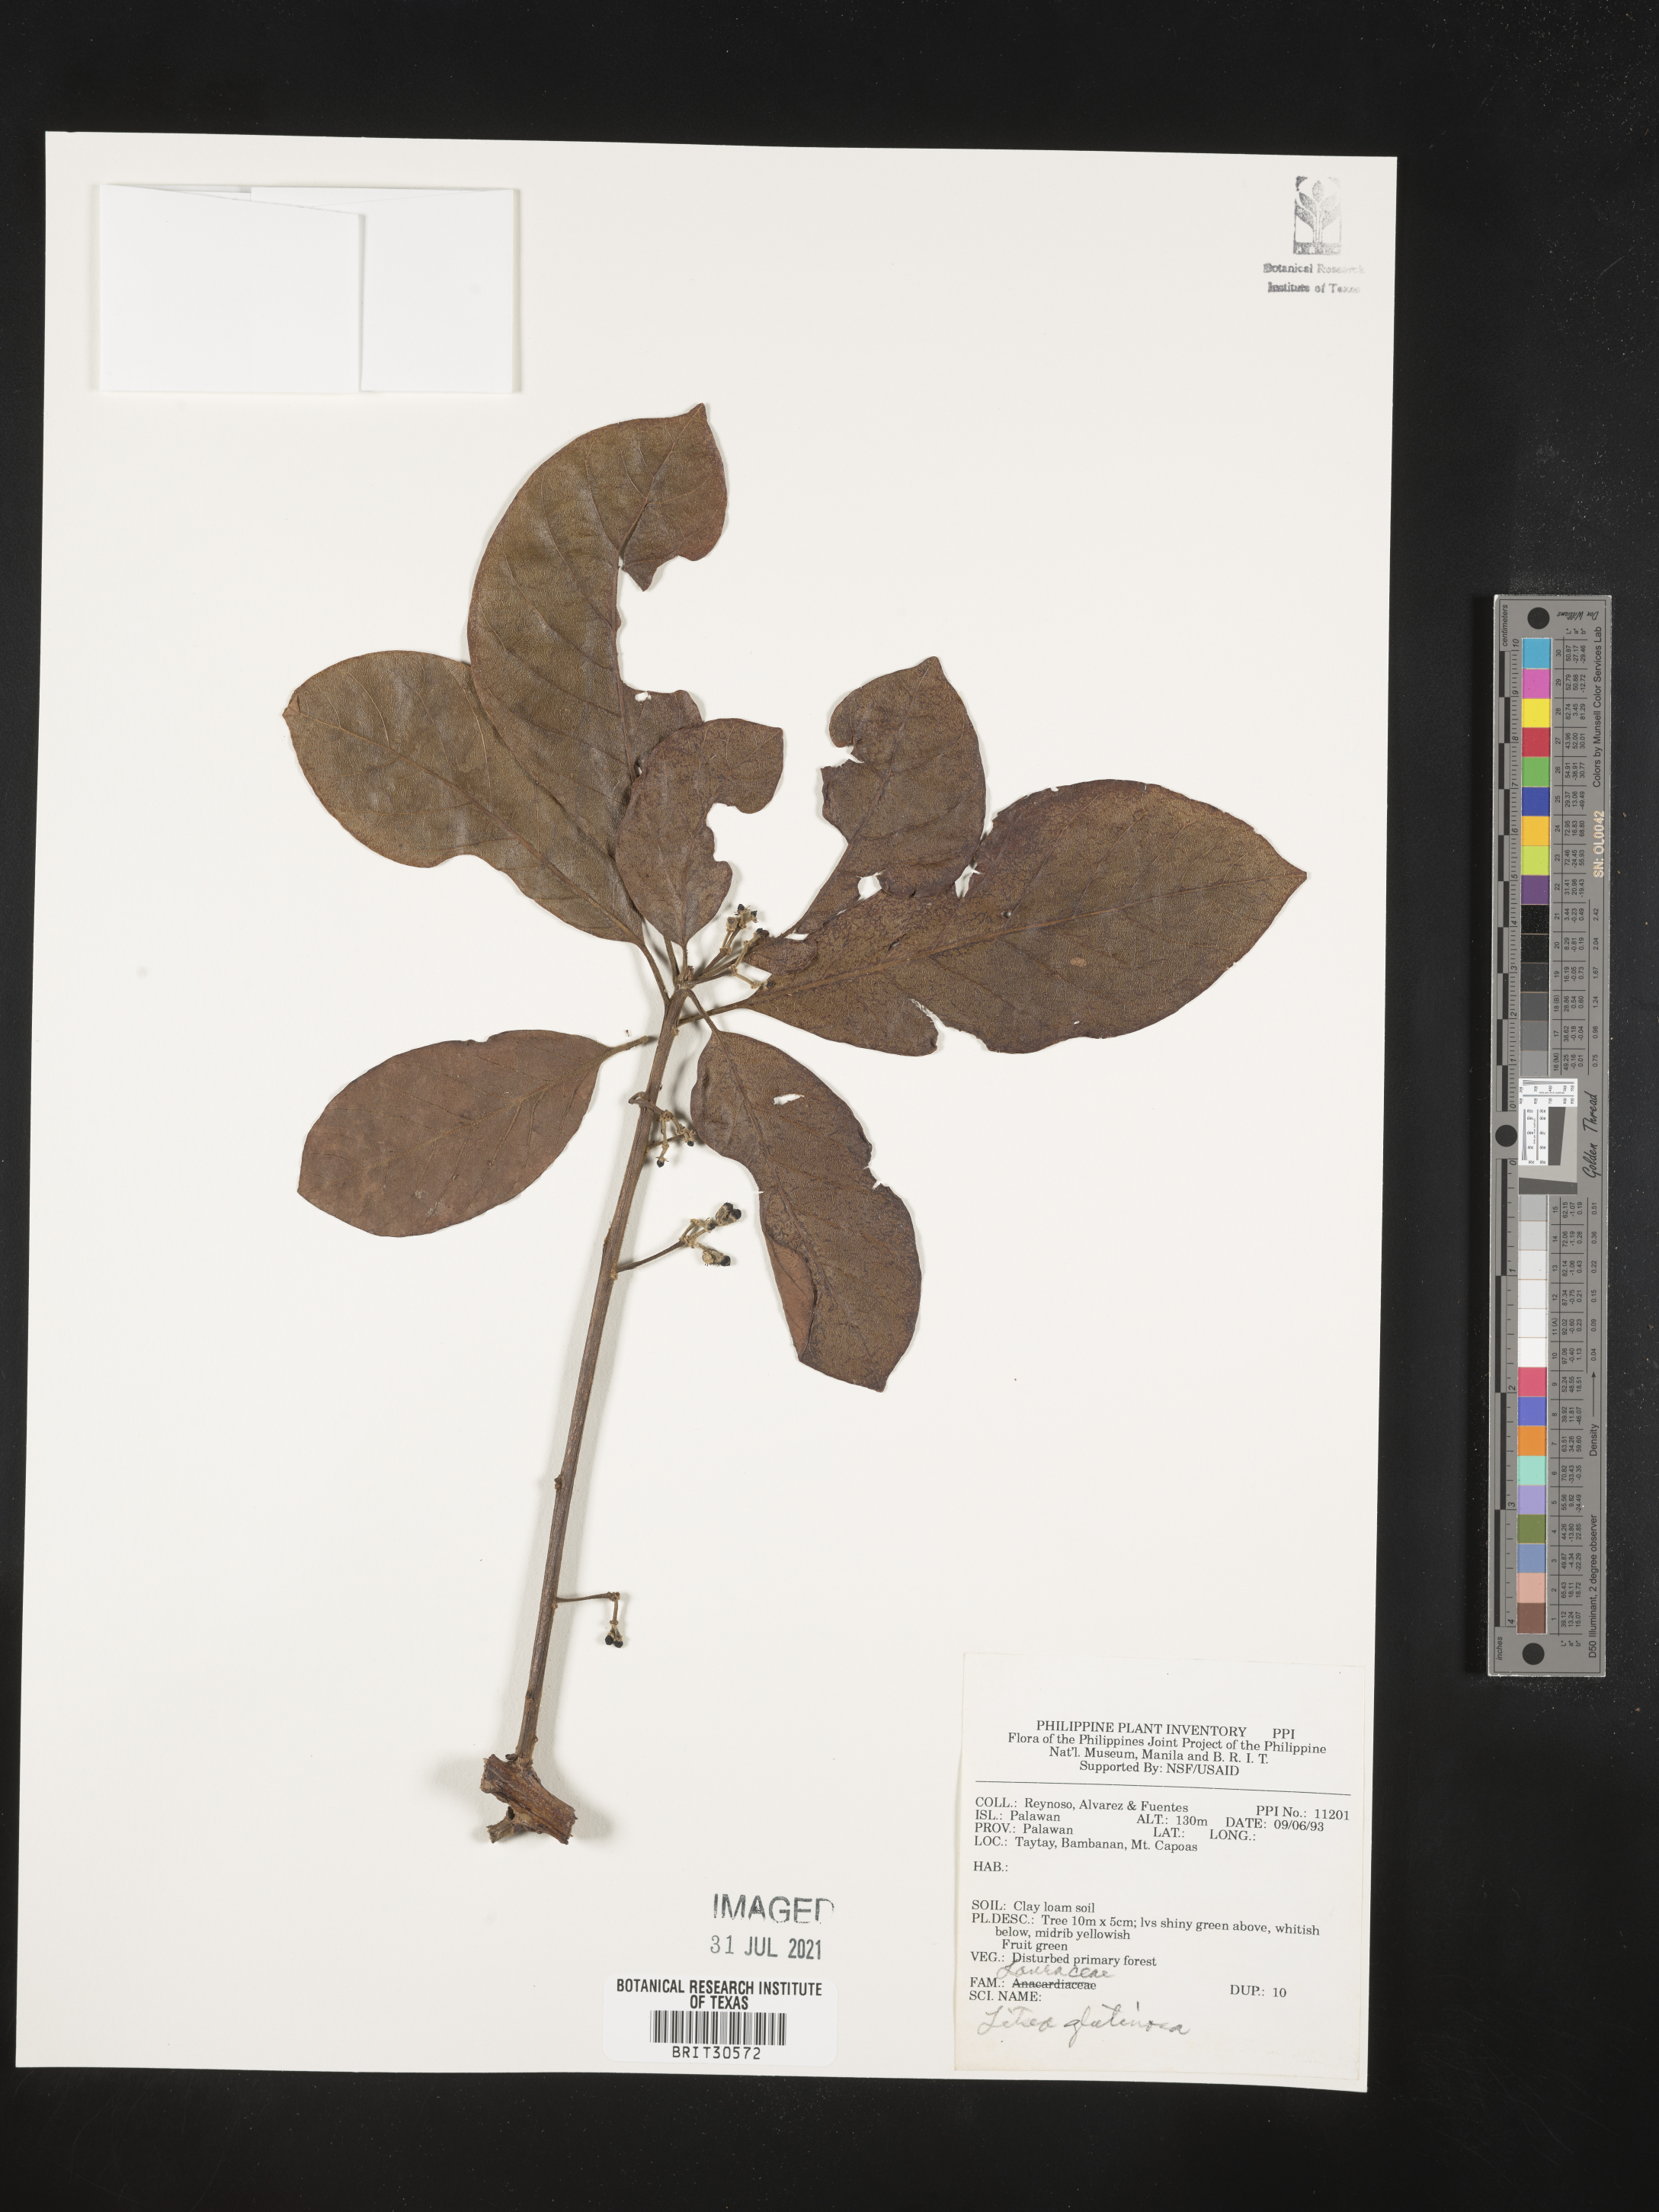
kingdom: Plantae
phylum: Tracheophyta
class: Magnoliopsida
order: Laurales
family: Lauraceae
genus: Litsea
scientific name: Litsea glutinosa
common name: Indian-laurel
